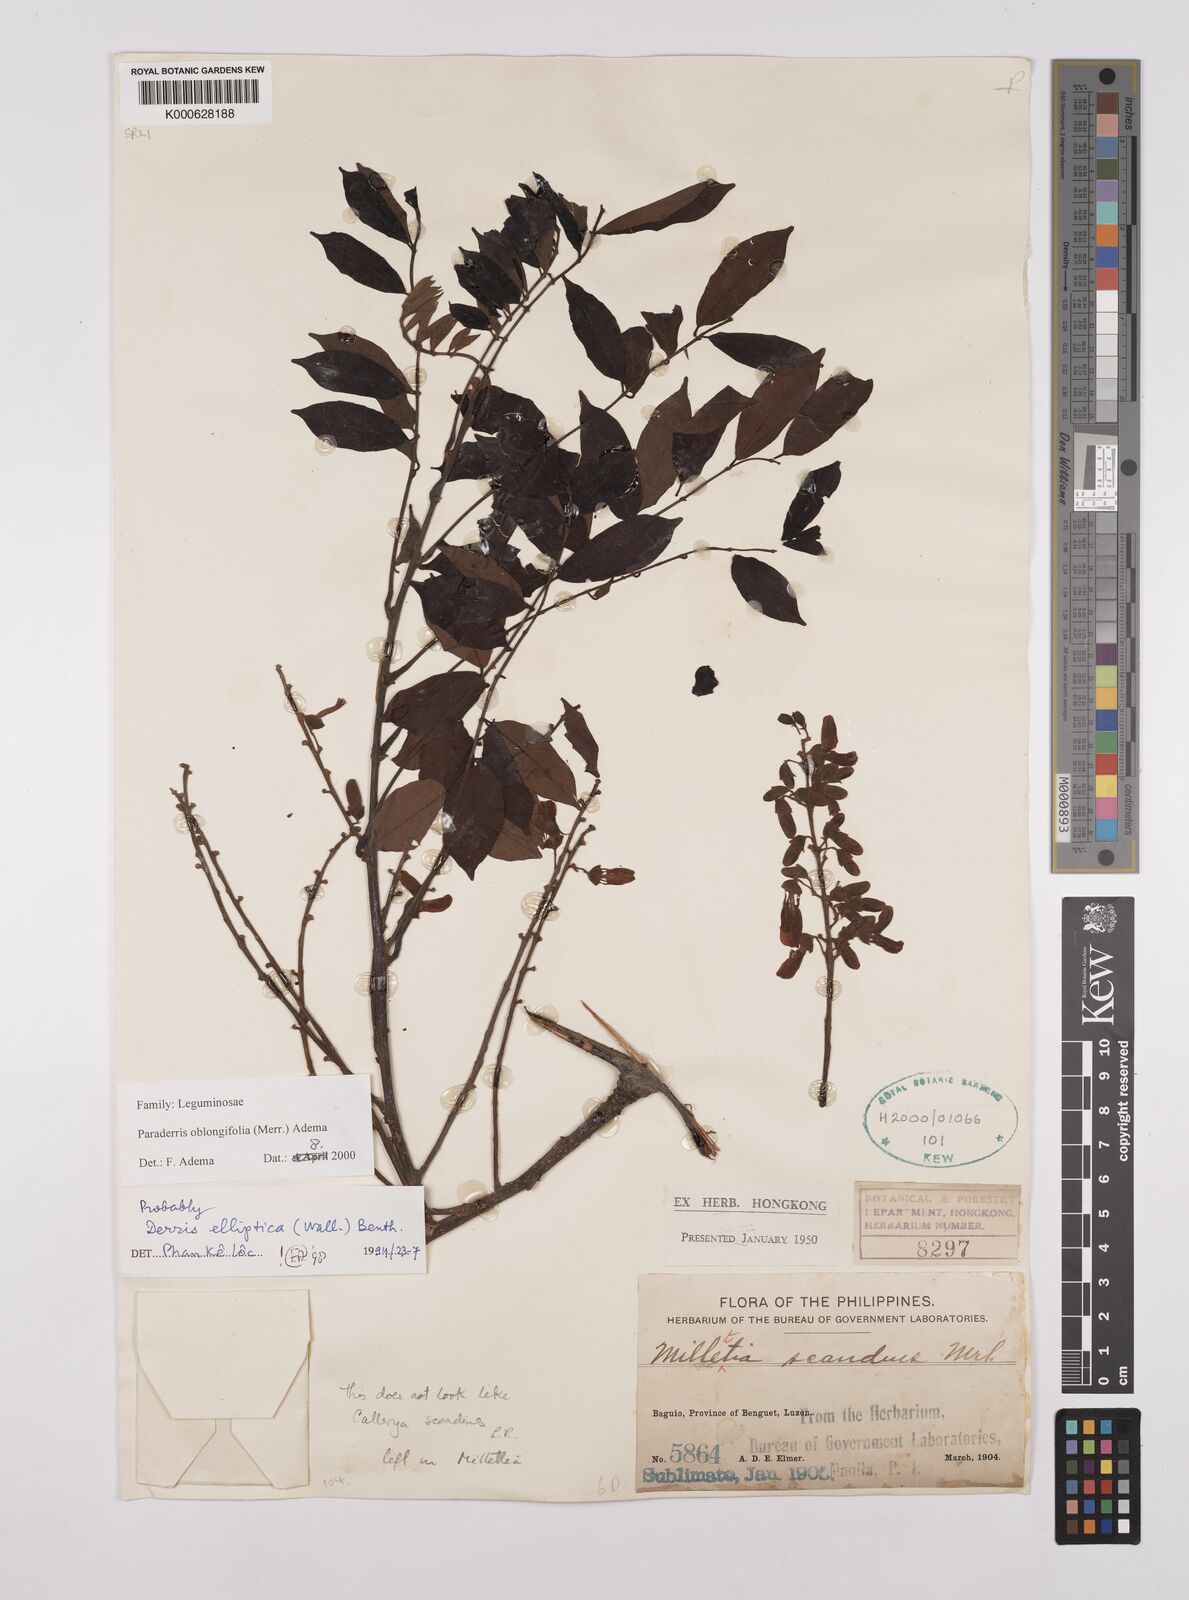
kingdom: Plantae
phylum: Tracheophyta
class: Magnoliopsida
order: Fabales
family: Fabaceae
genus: Derris
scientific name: Derris oblongifolia
